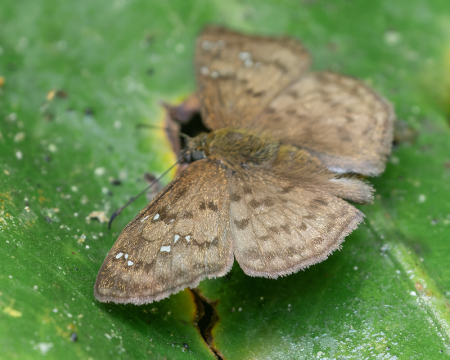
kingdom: Animalia
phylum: Arthropoda
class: Insecta
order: Lepidoptera
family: Hesperiidae
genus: Carrhenes
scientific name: Carrhenes fuscescens
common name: Tanned Hoary-Skipper
